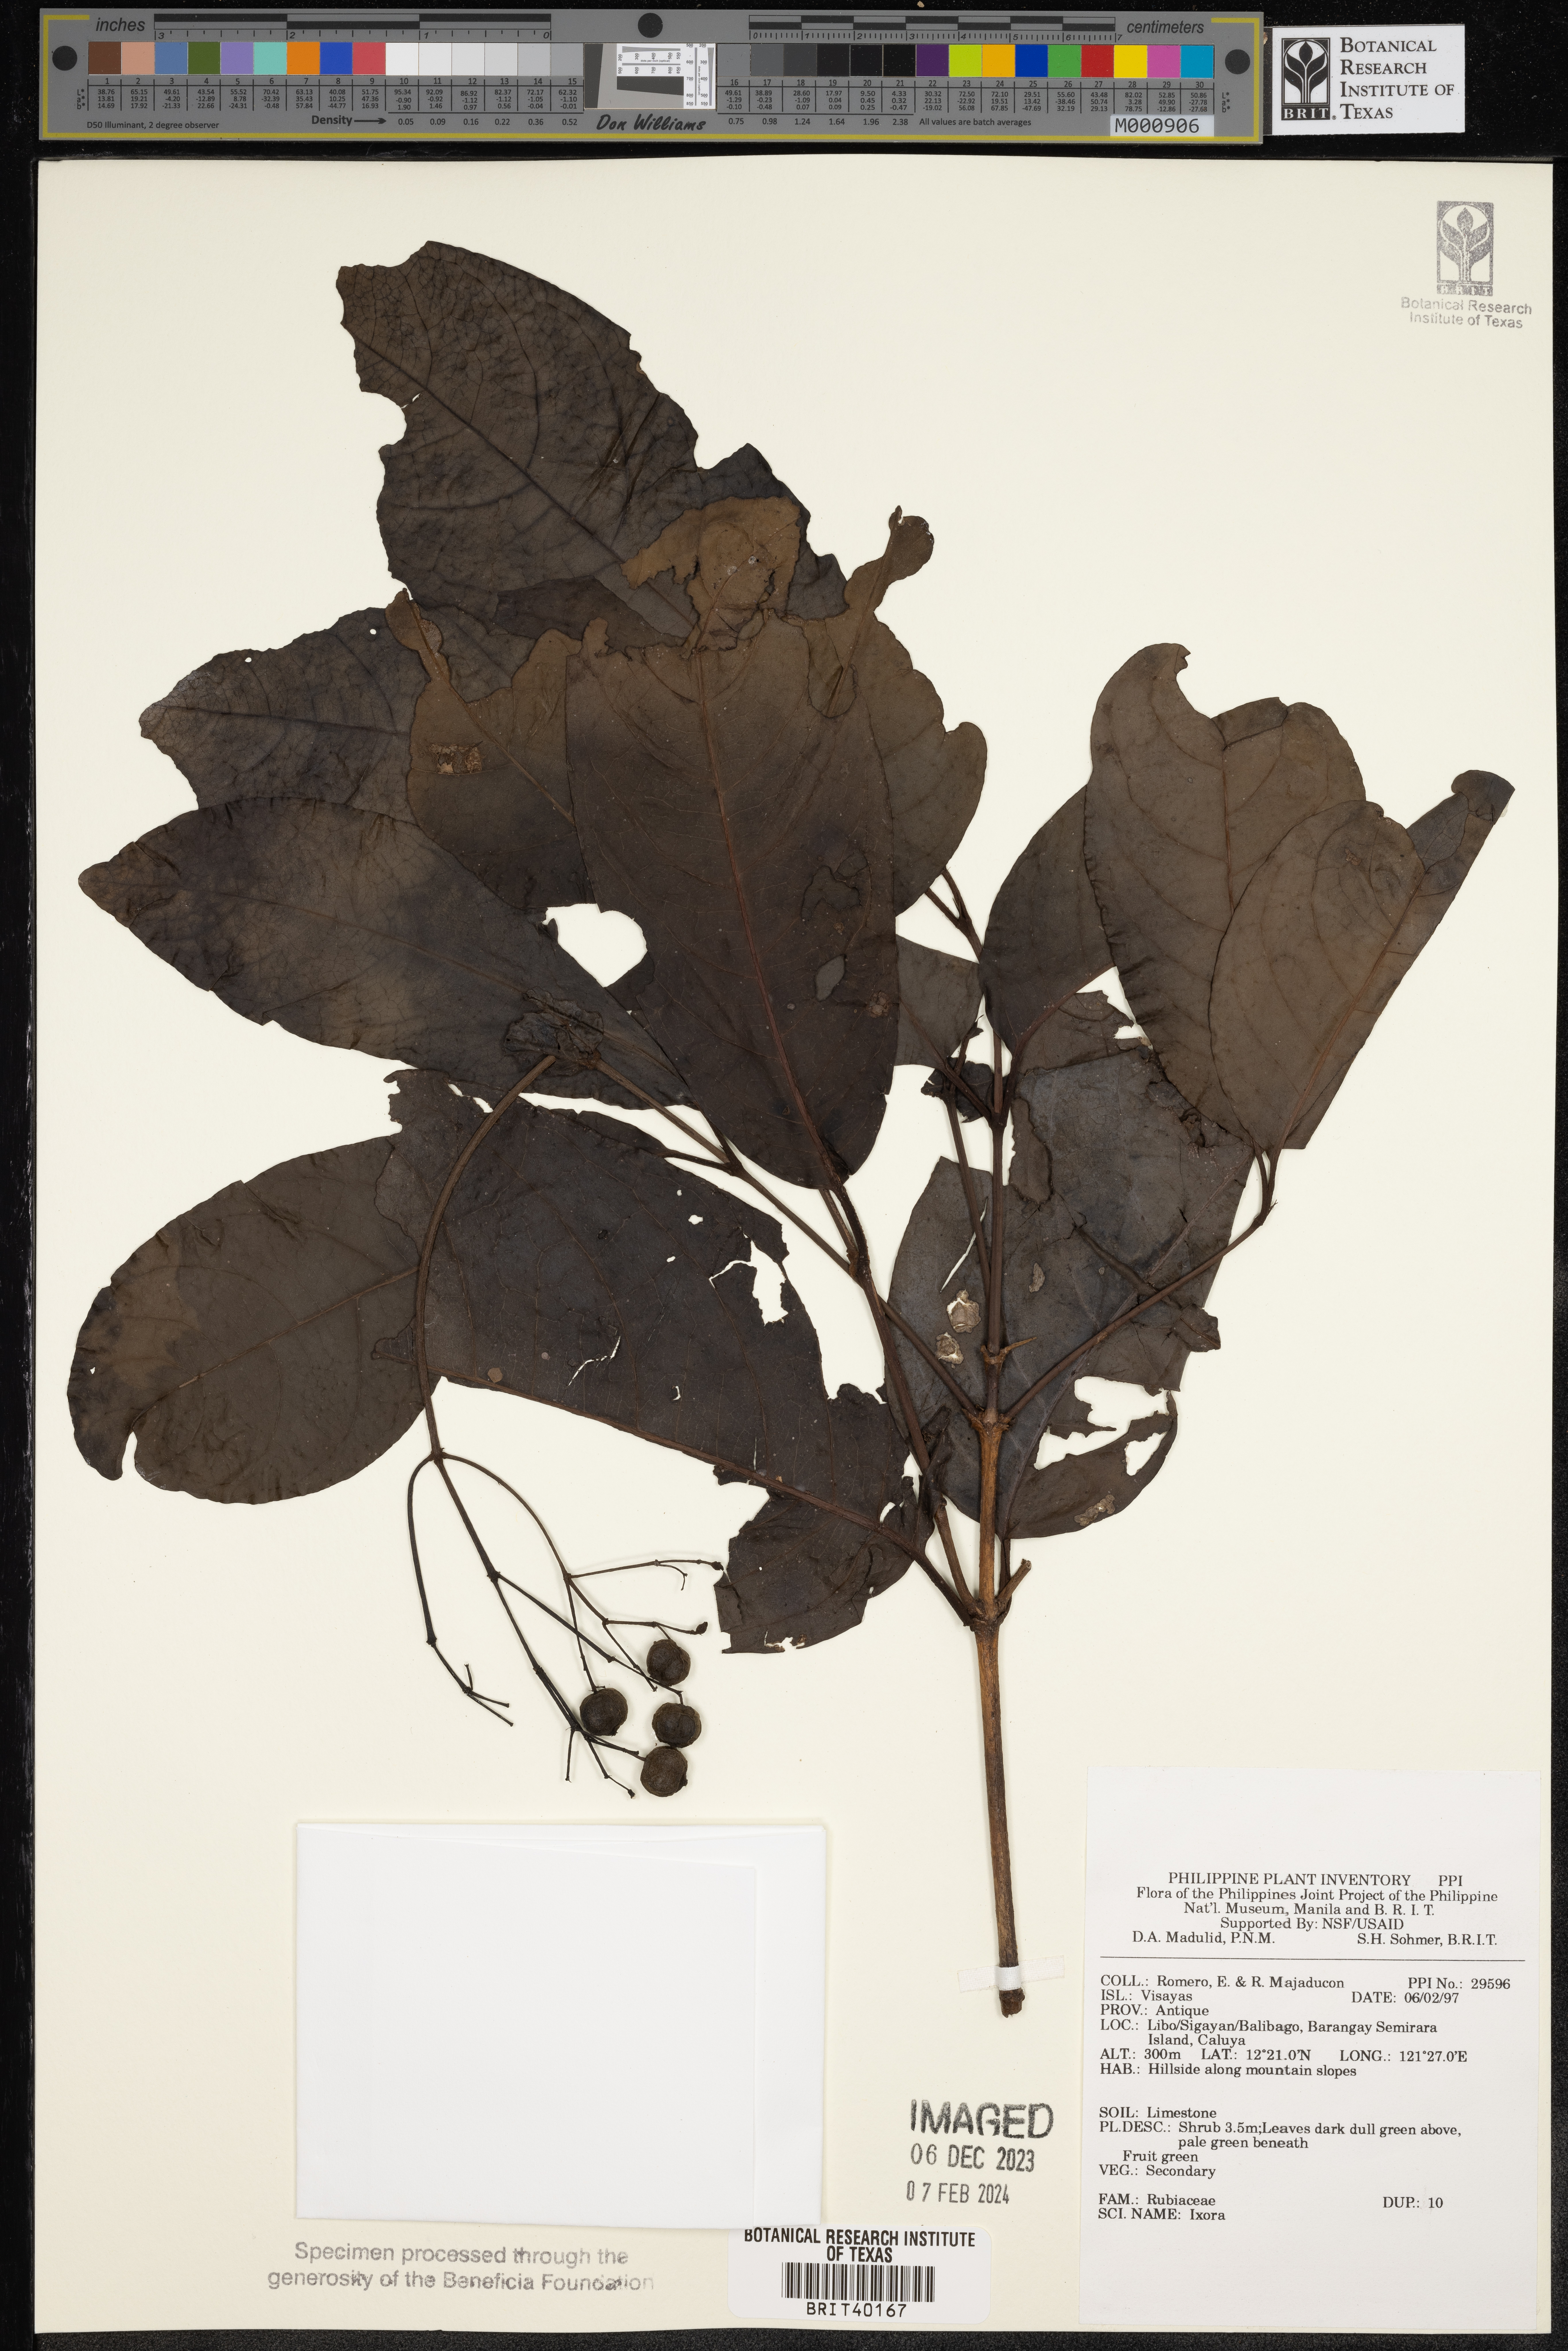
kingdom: Plantae
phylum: Tracheophyta
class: Magnoliopsida
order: Gentianales
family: Rubiaceae
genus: Ixora
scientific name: Ixora
